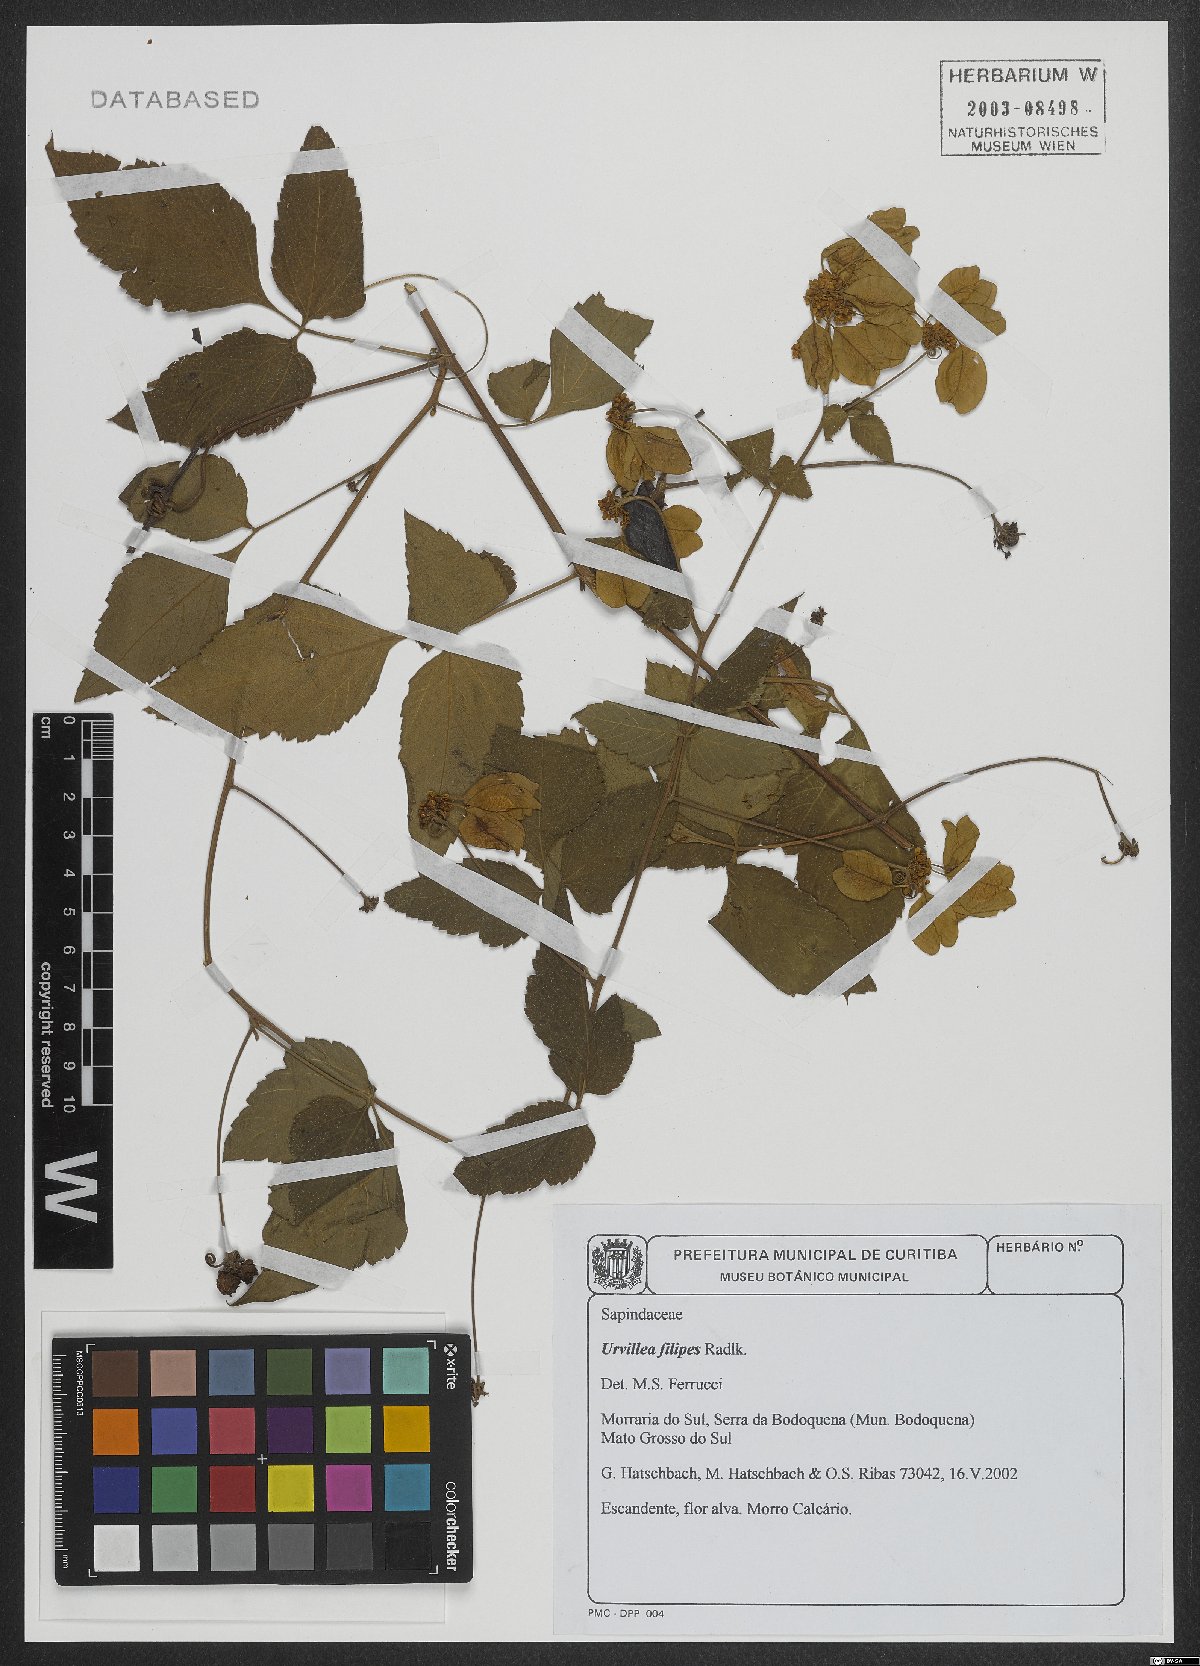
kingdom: Plantae
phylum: Tracheophyta
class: Magnoliopsida
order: Sapindales
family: Sapindaceae
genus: Urvillea
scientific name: Urvillea filipes
